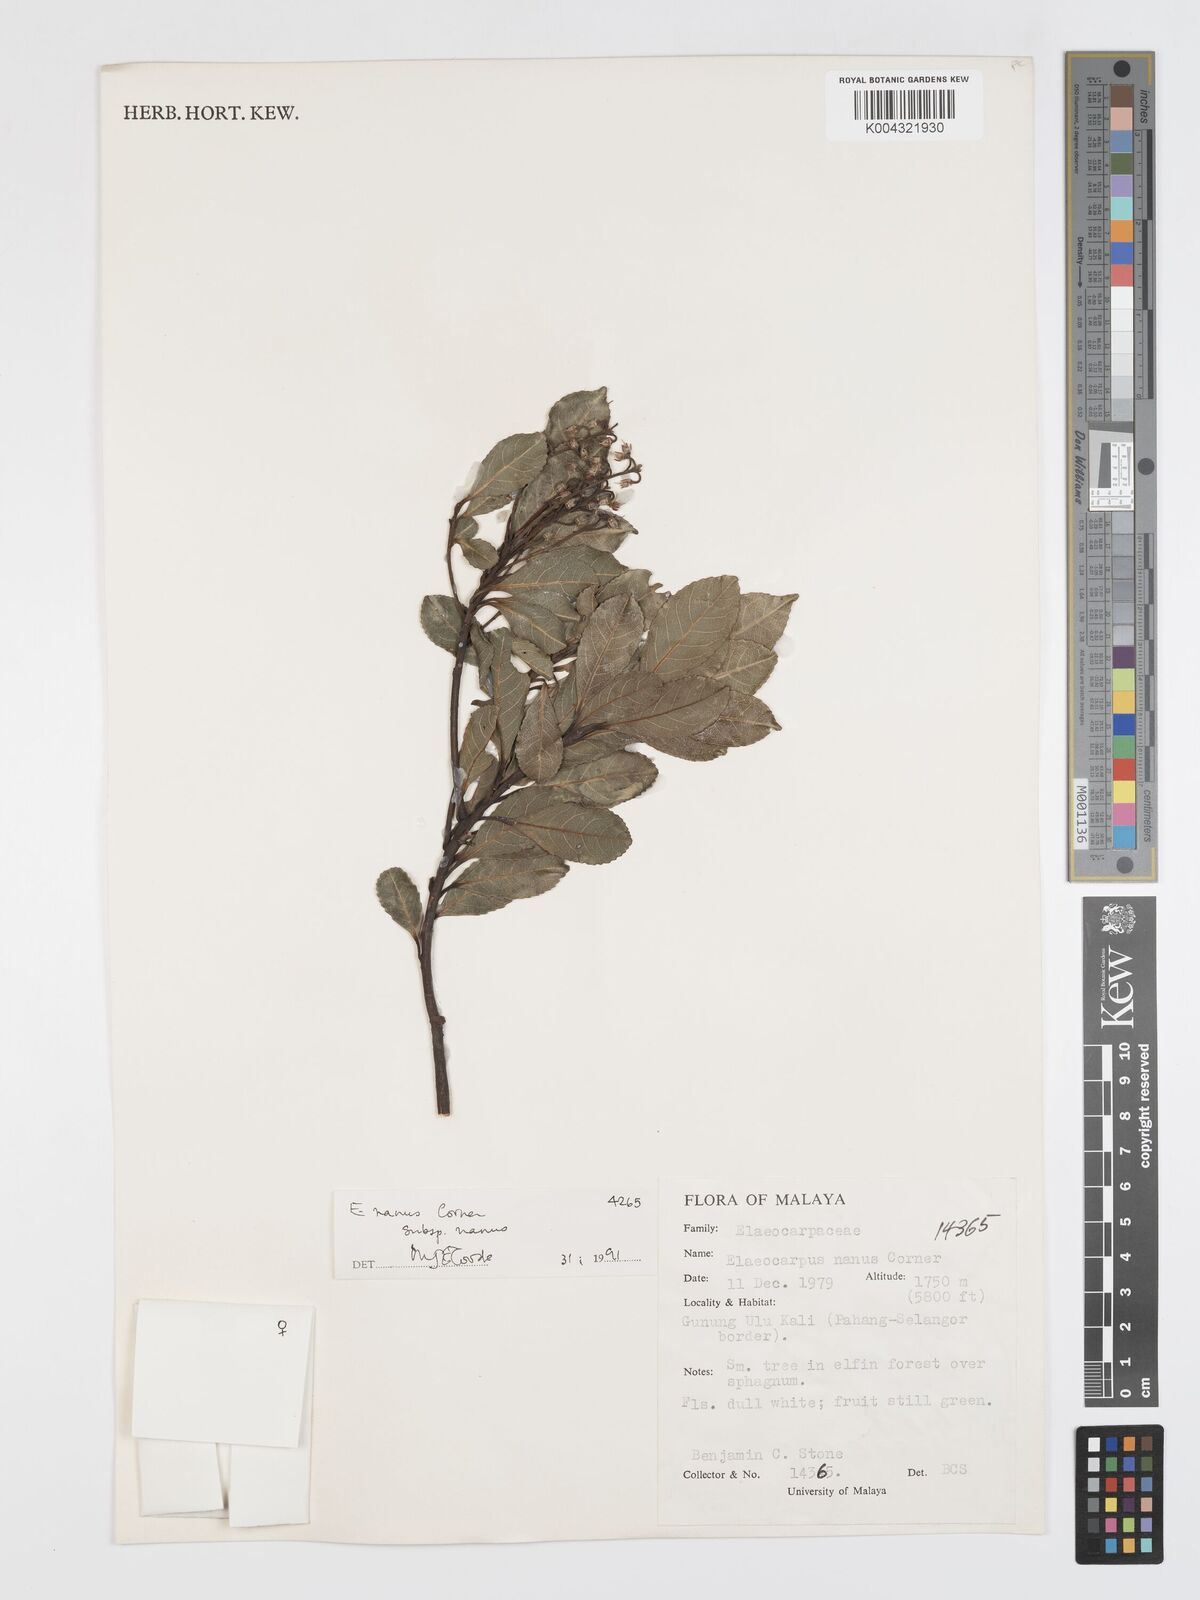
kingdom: Plantae
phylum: Tracheophyta
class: Magnoliopsida
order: Oxalidales
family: Elaeocarpaceae
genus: Elaeocarpus
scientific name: Elaeocarpus nanus
